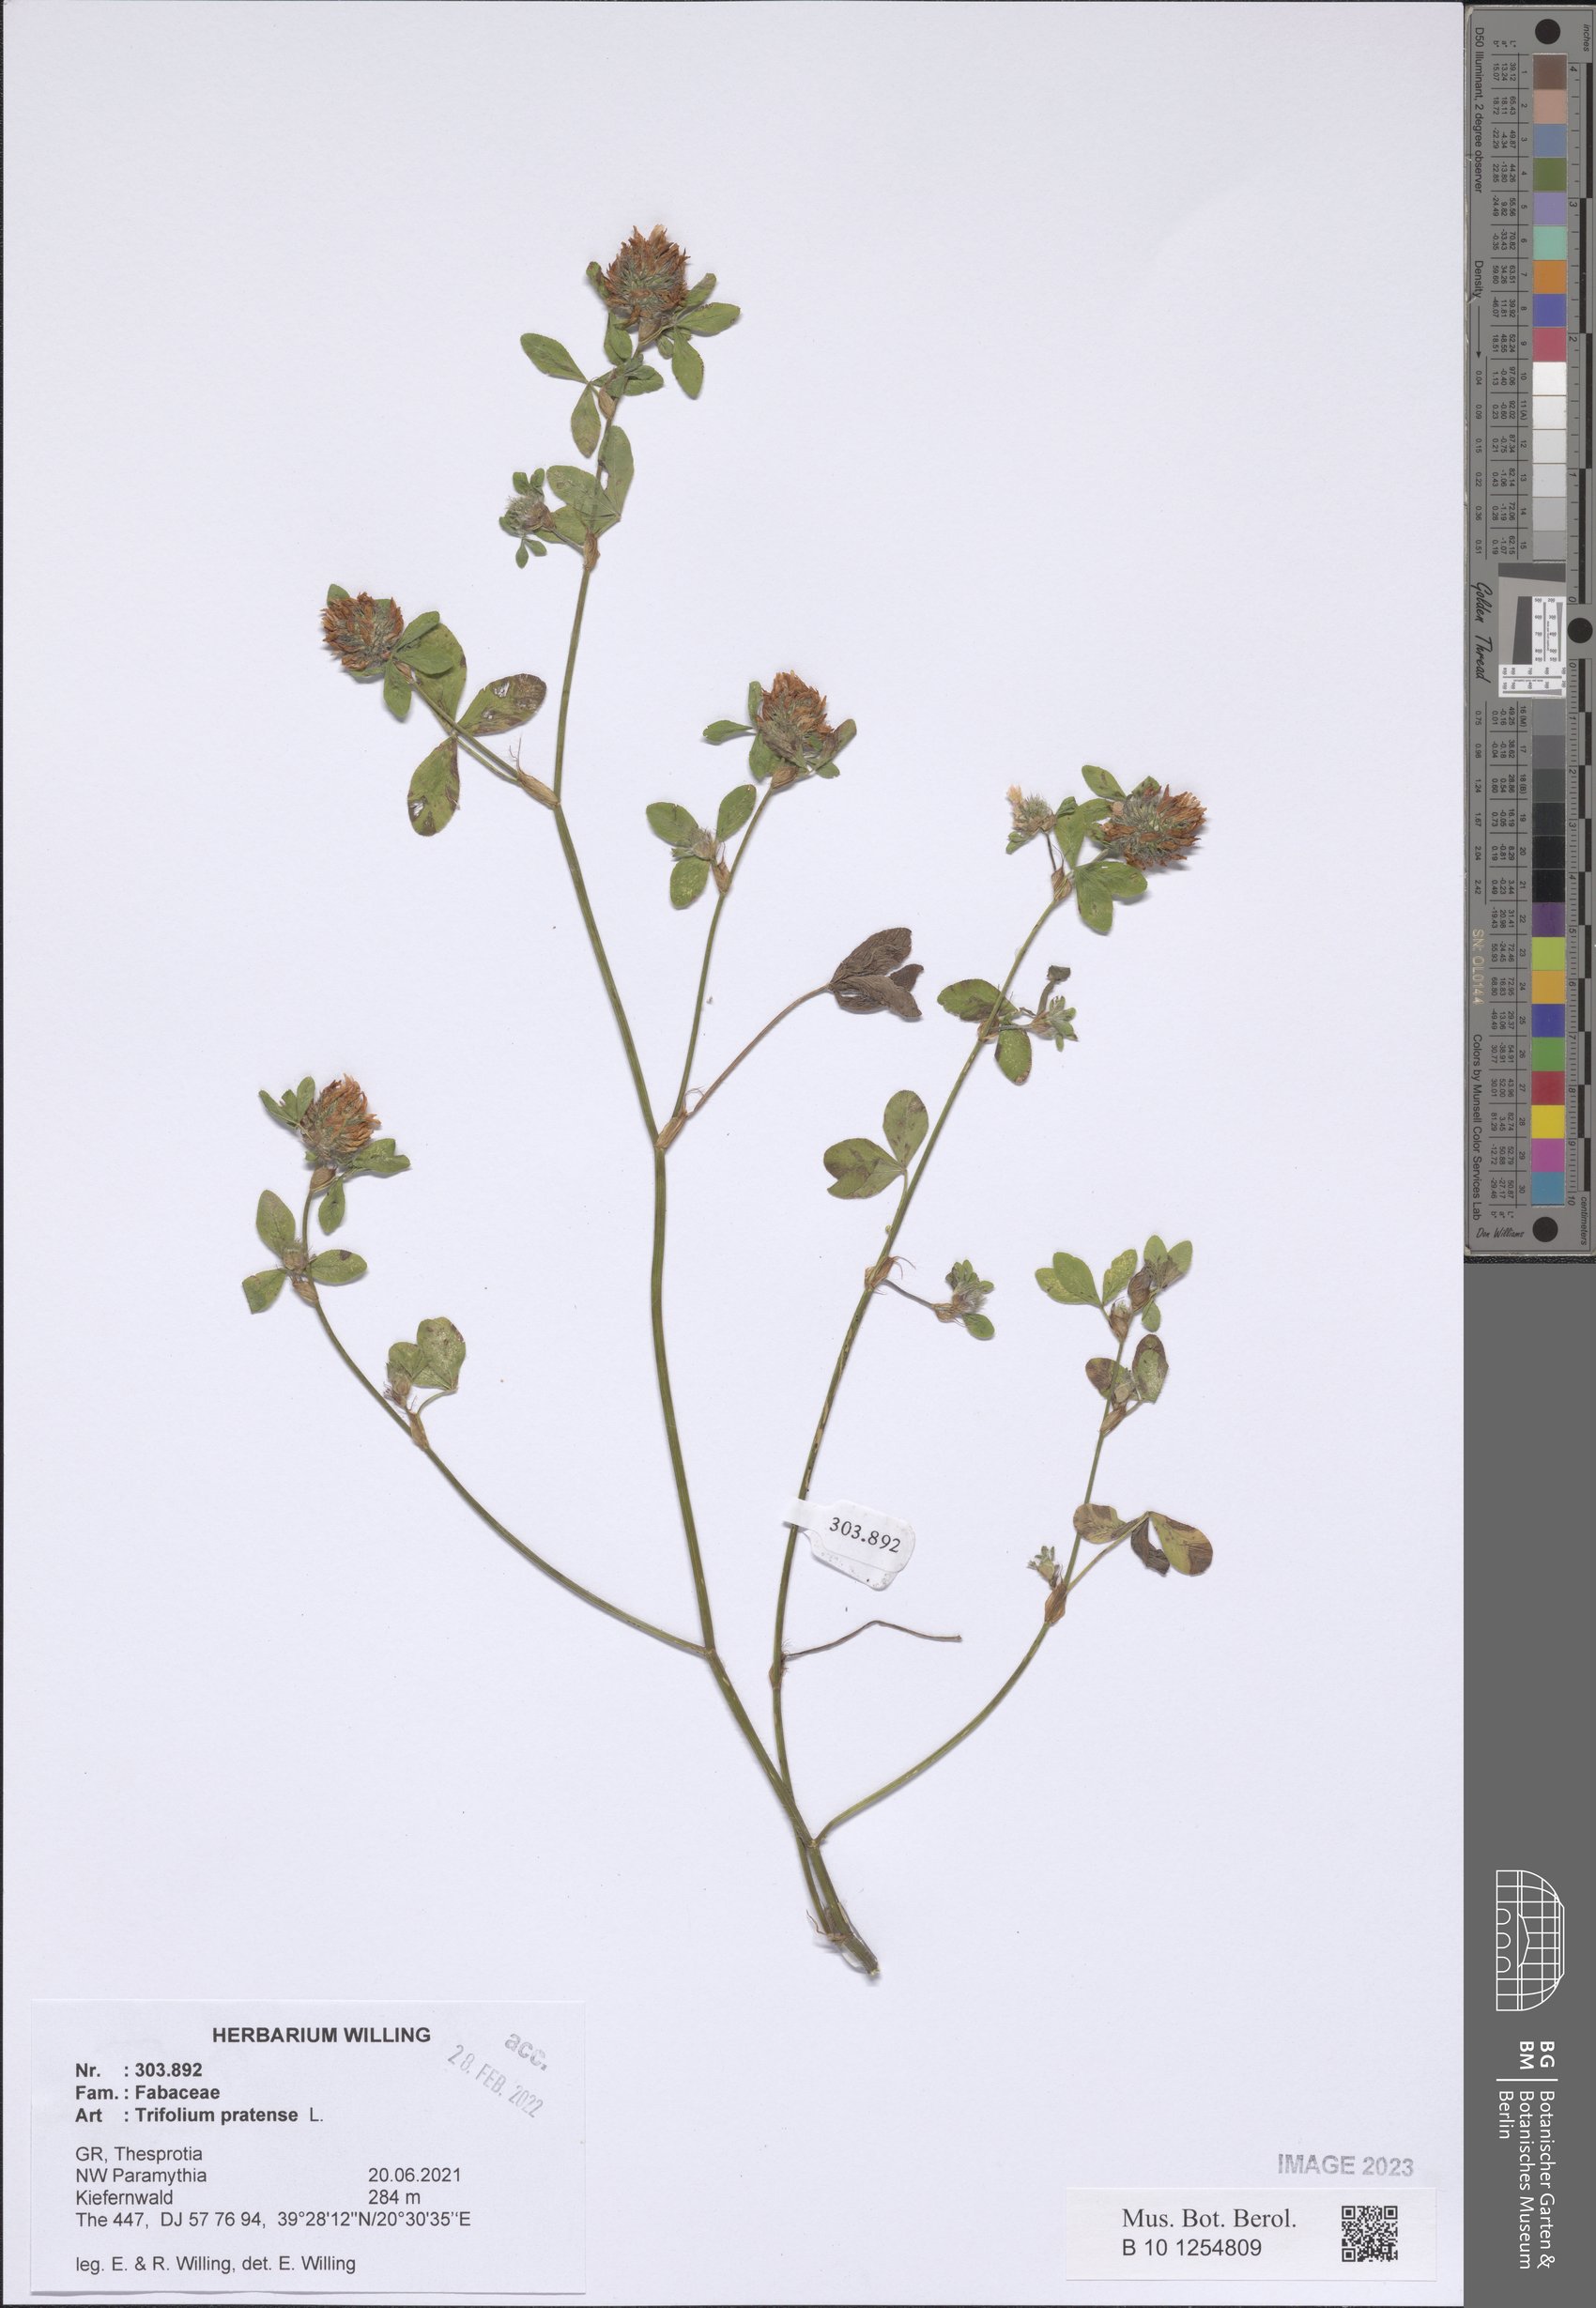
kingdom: Plantae
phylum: Tracheophyta
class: Magnoliopsida
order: Fabales
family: Fabaceae
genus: Trifolium
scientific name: Trifolium pratense
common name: Red clover
